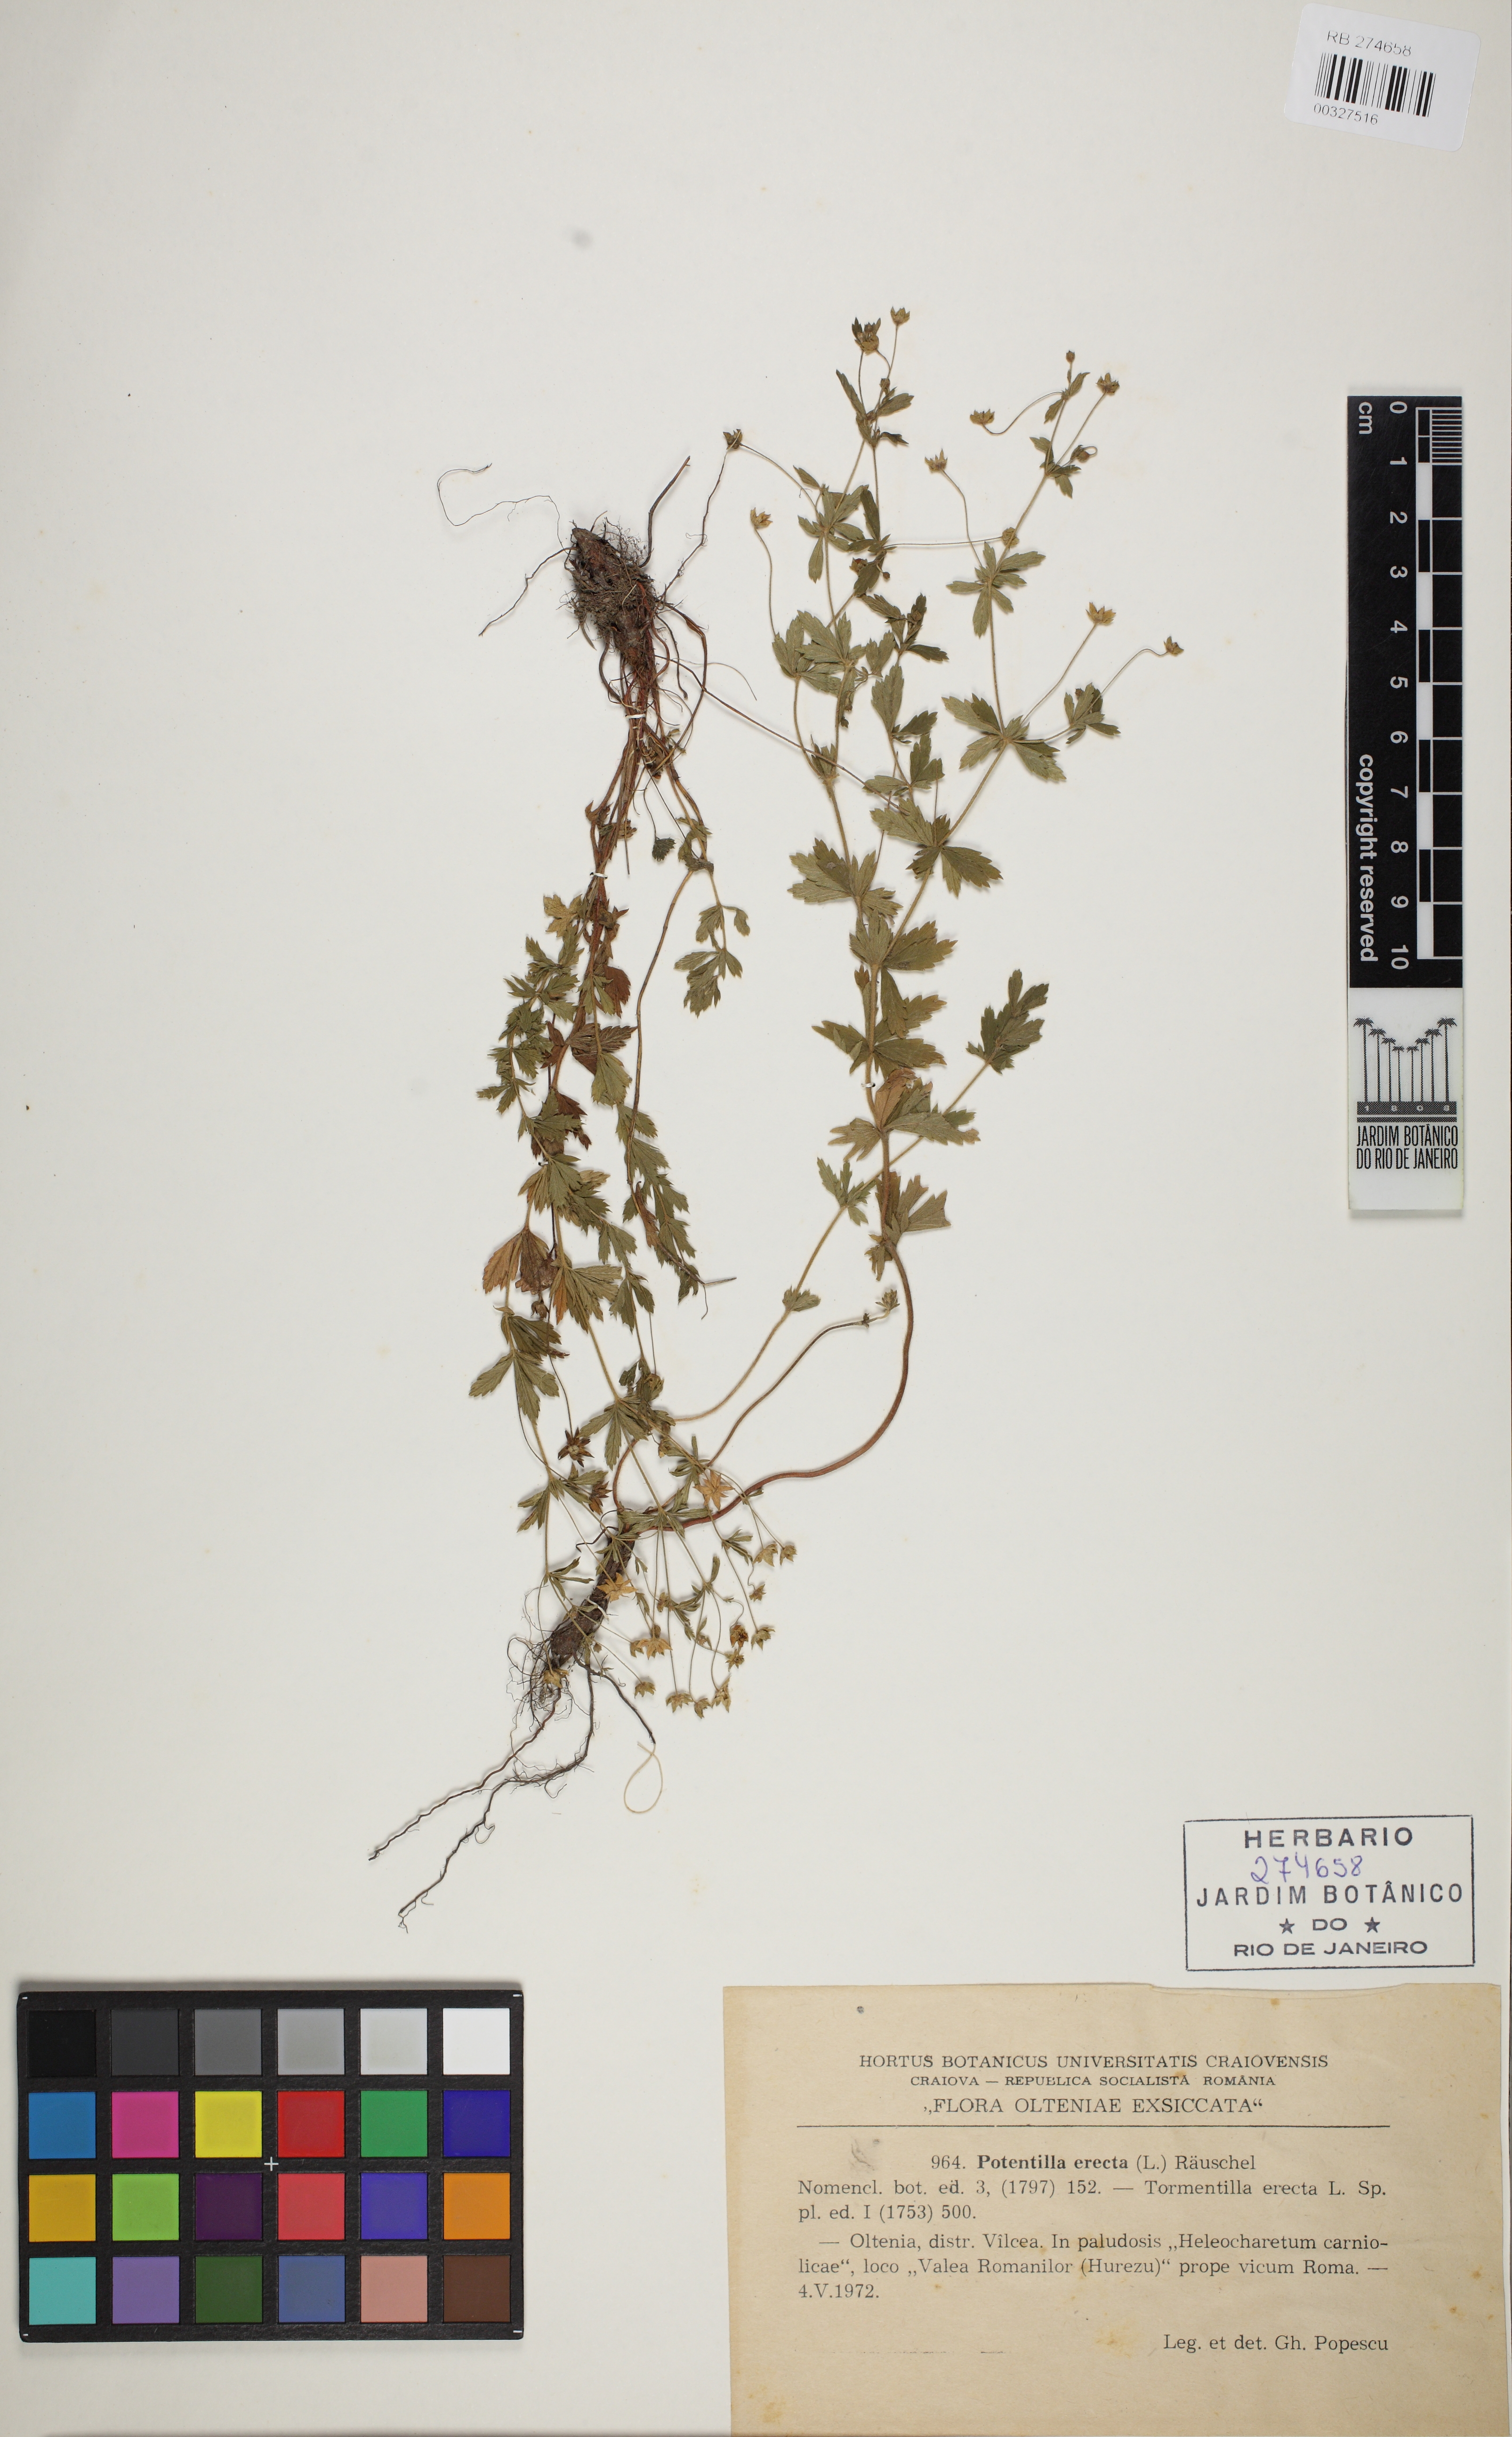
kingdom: Plantae
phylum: Tracheophyta
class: Magnoliopsida
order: Rosales
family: Rosaceae
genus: Potentilla
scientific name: Potentilla erecta
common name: Tormentil
